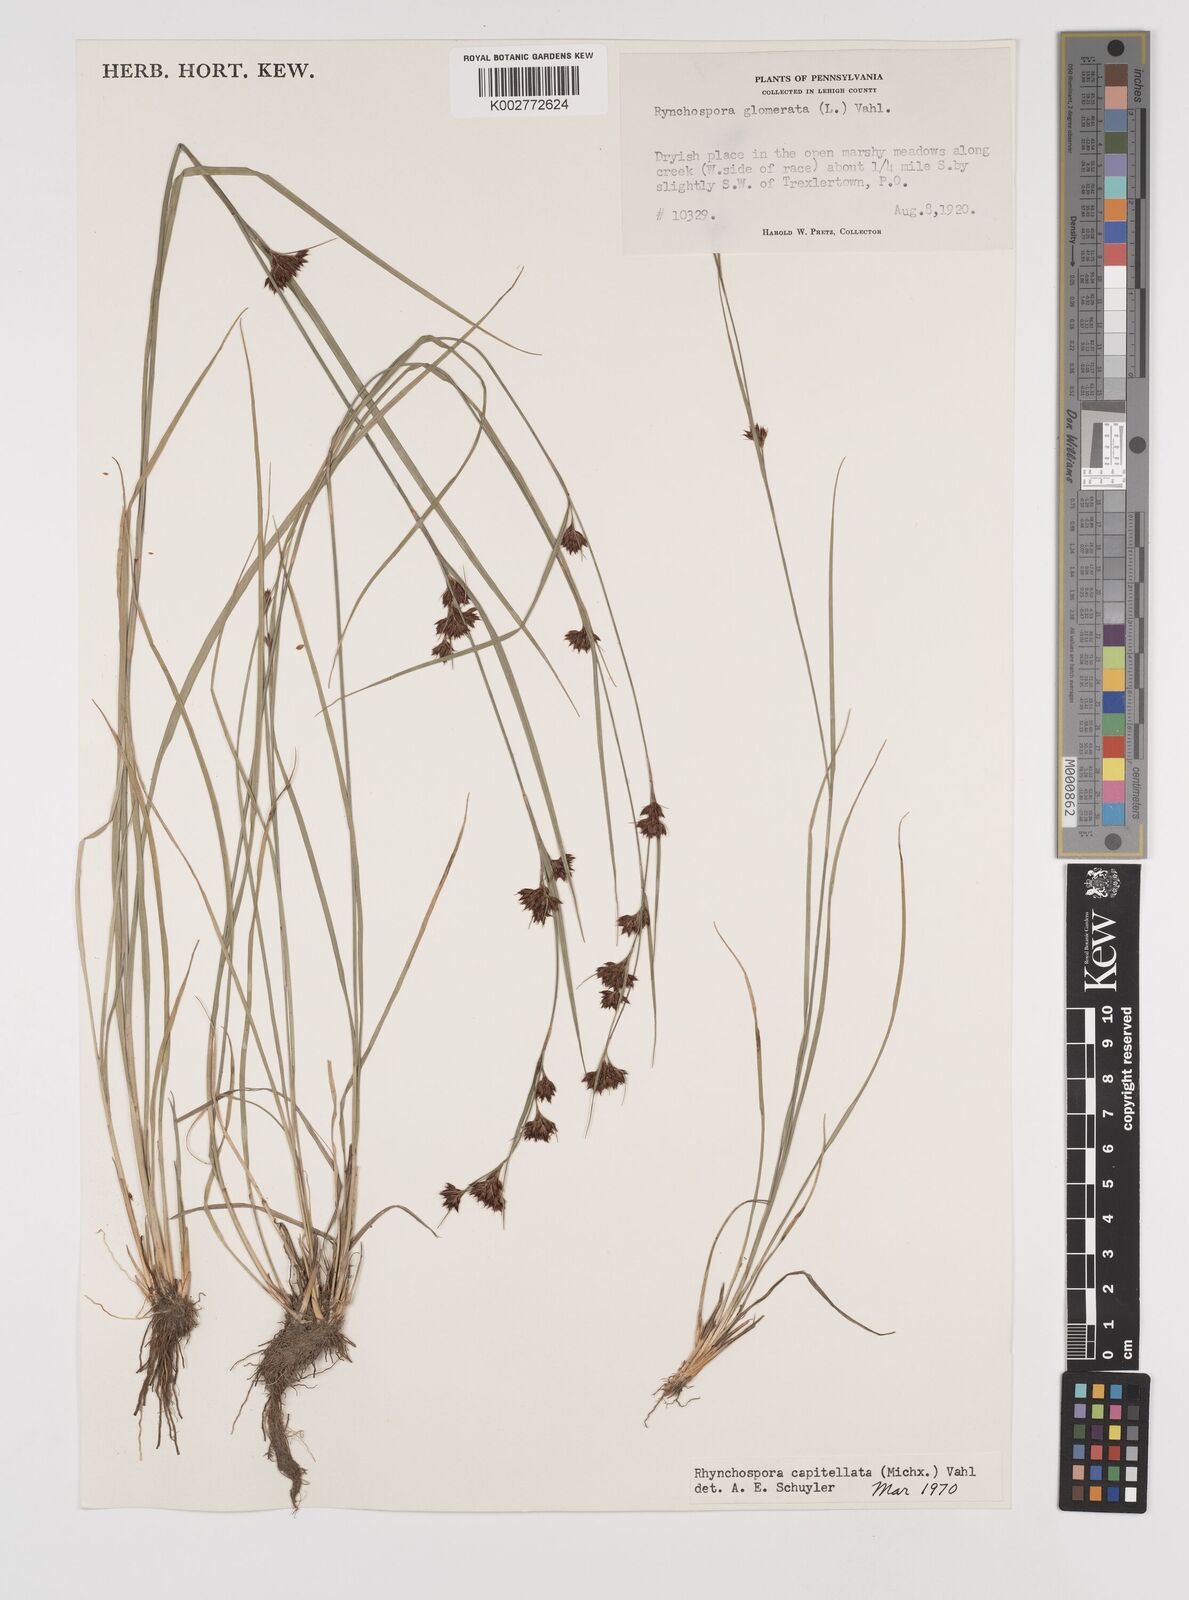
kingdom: Plantae
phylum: Tracheophyta
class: Liliopsida
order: Poales
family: Cyperaceae
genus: Rhynchospora
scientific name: Rhynchospora capitellata
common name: Brownish beaksedge
